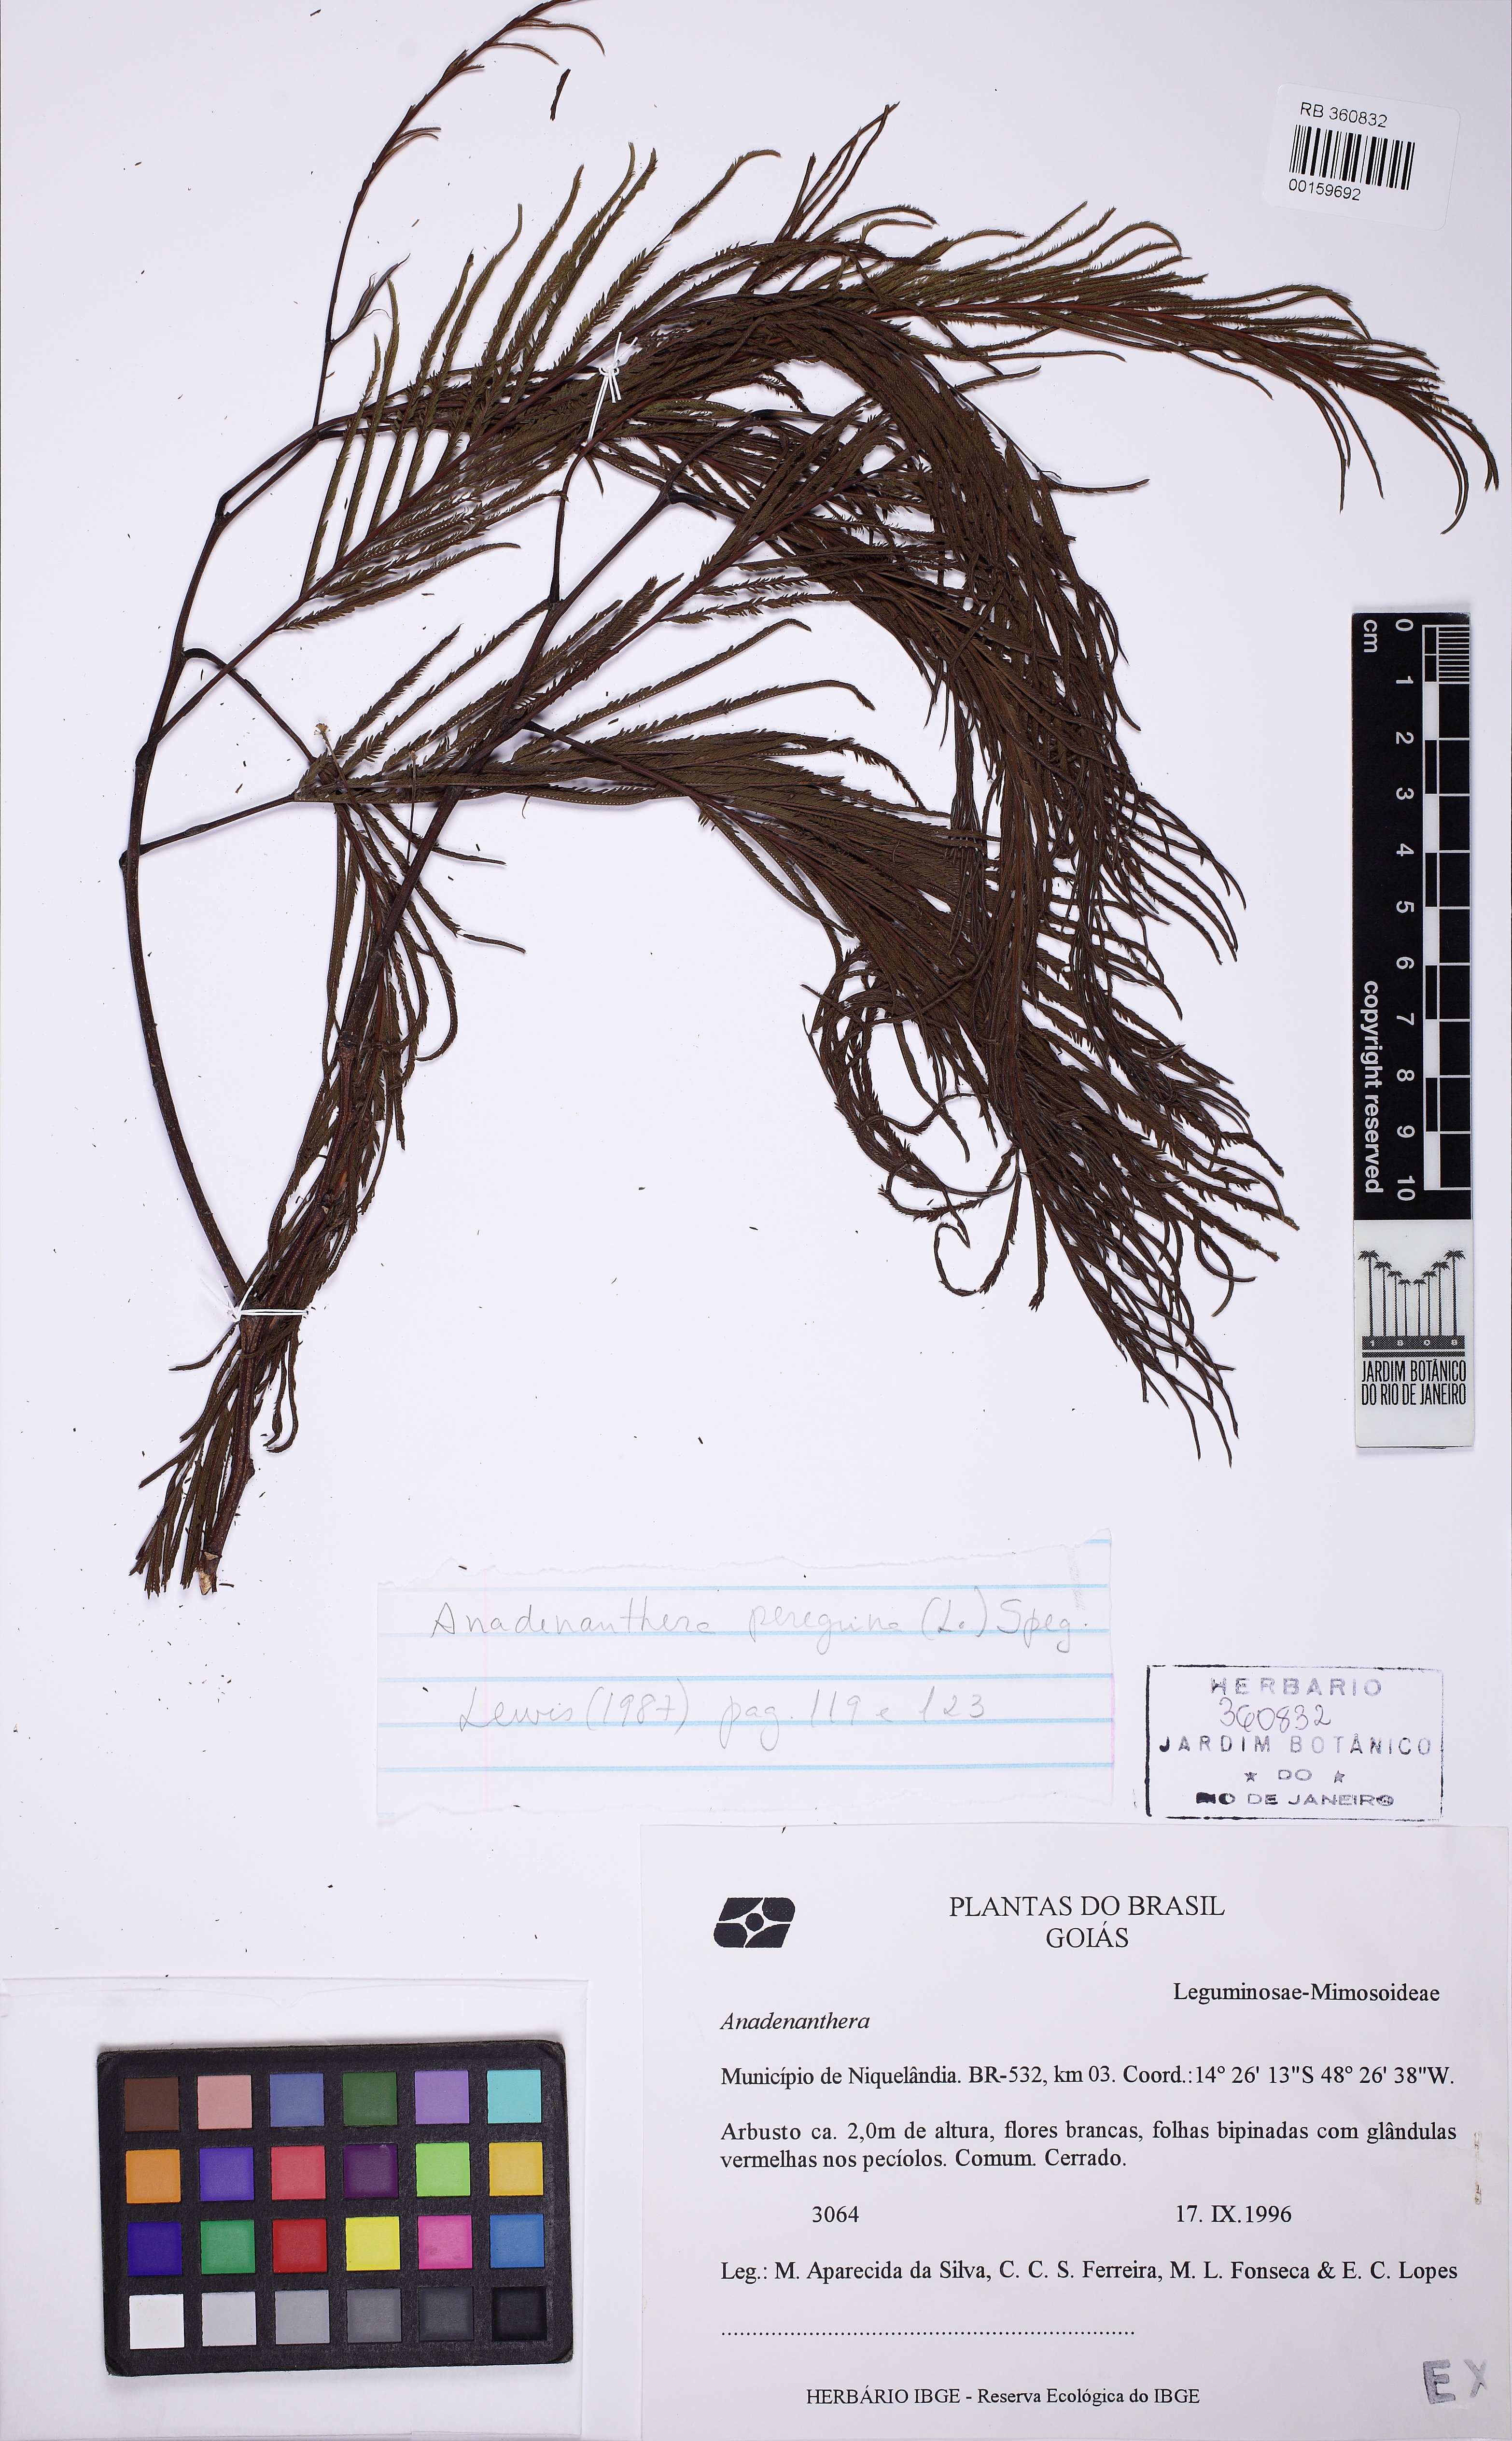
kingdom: Plantae
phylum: Tracheophyta
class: Magnoliopsida
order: Fabales
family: Fabaceae
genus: Anadenanthera
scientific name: Anadenanthera peregrina
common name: Cohoba
